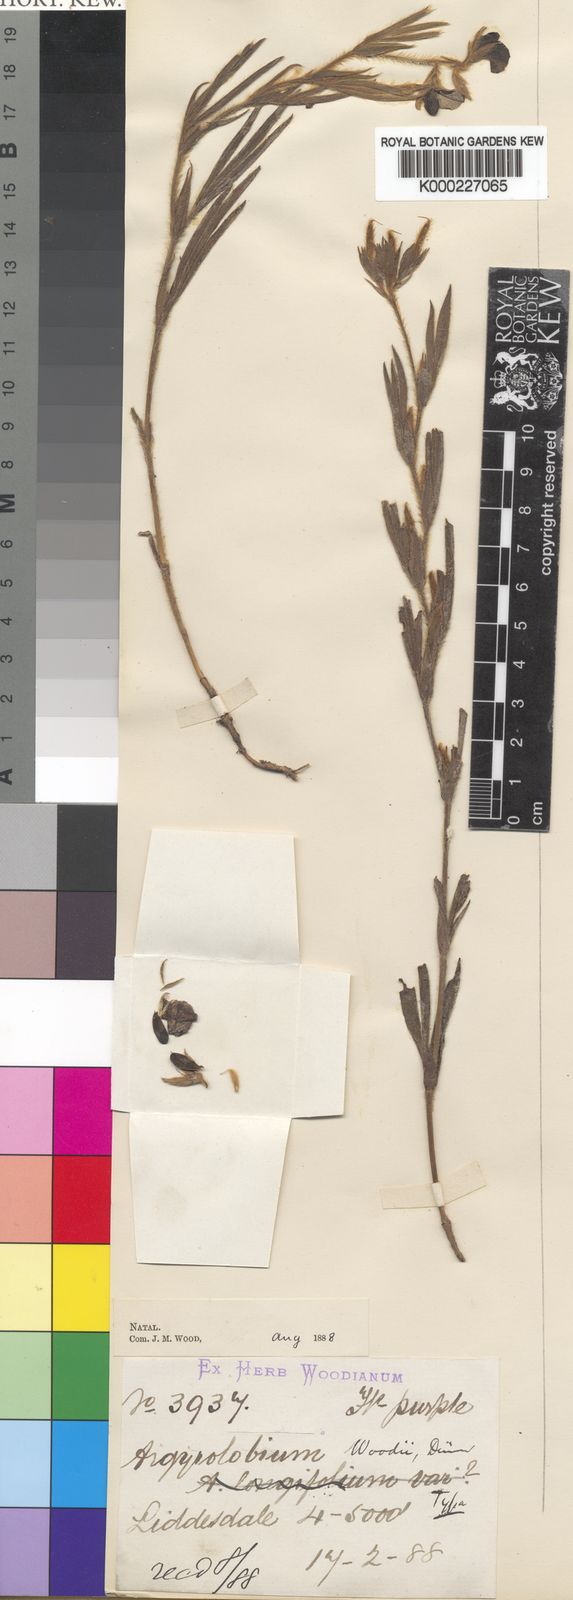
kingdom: Plantae
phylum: Tracheophyta
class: Magnoliopsida
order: Fabales
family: Fabaceae
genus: Argyrolobium
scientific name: Argyrolobium tuberosum
